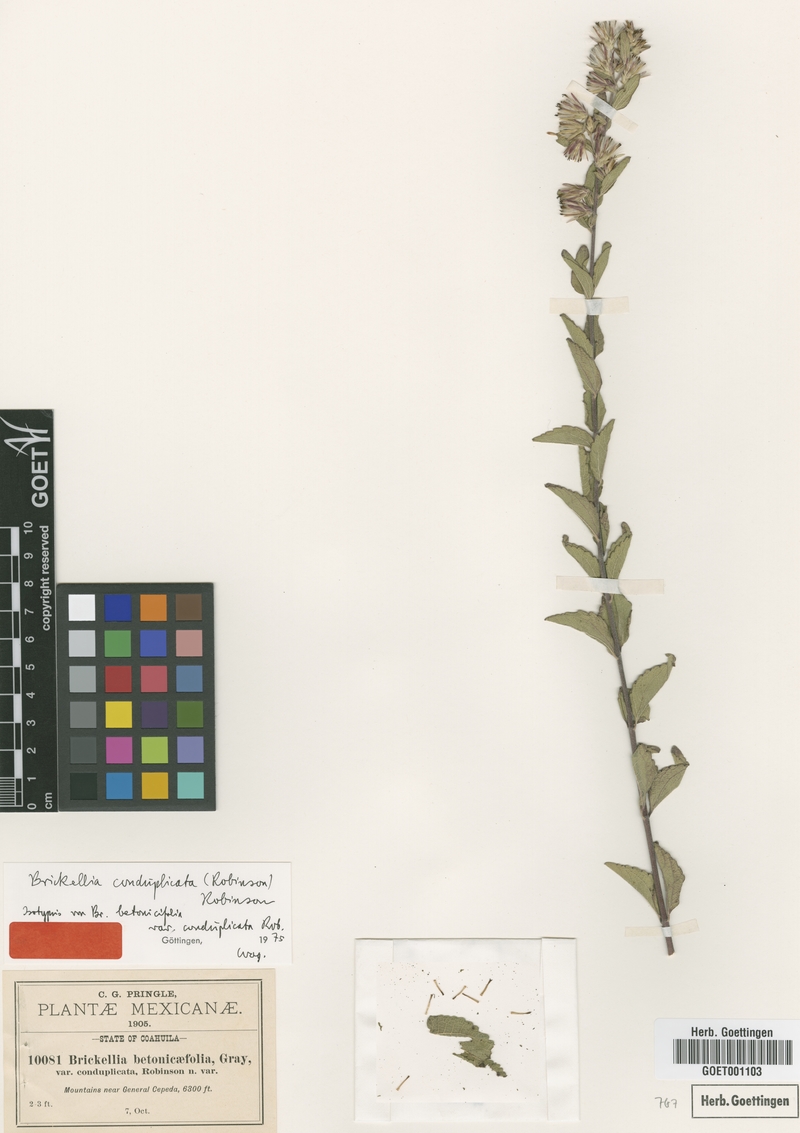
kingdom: Plantae
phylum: Tracheophyta
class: Magnoliopsida
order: Asterales
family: Asteraceae
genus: Brickellia
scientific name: Brickellia lemmonii
